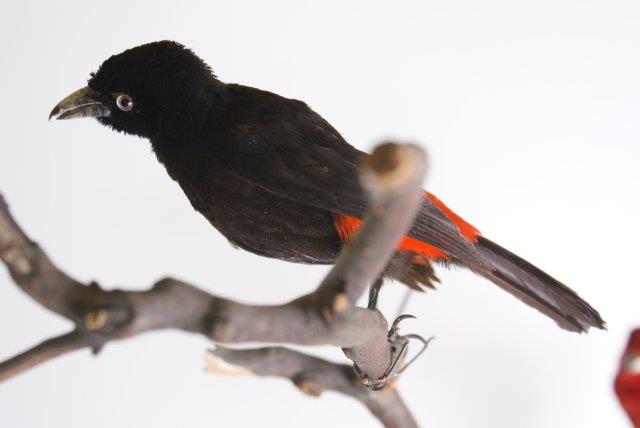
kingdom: Animalia
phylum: Chordata
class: Aves
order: Passeriformes
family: Thraupidae
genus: Ramphocelus
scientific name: Ramphocelus flammigerus
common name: Flame-rumped tanager
